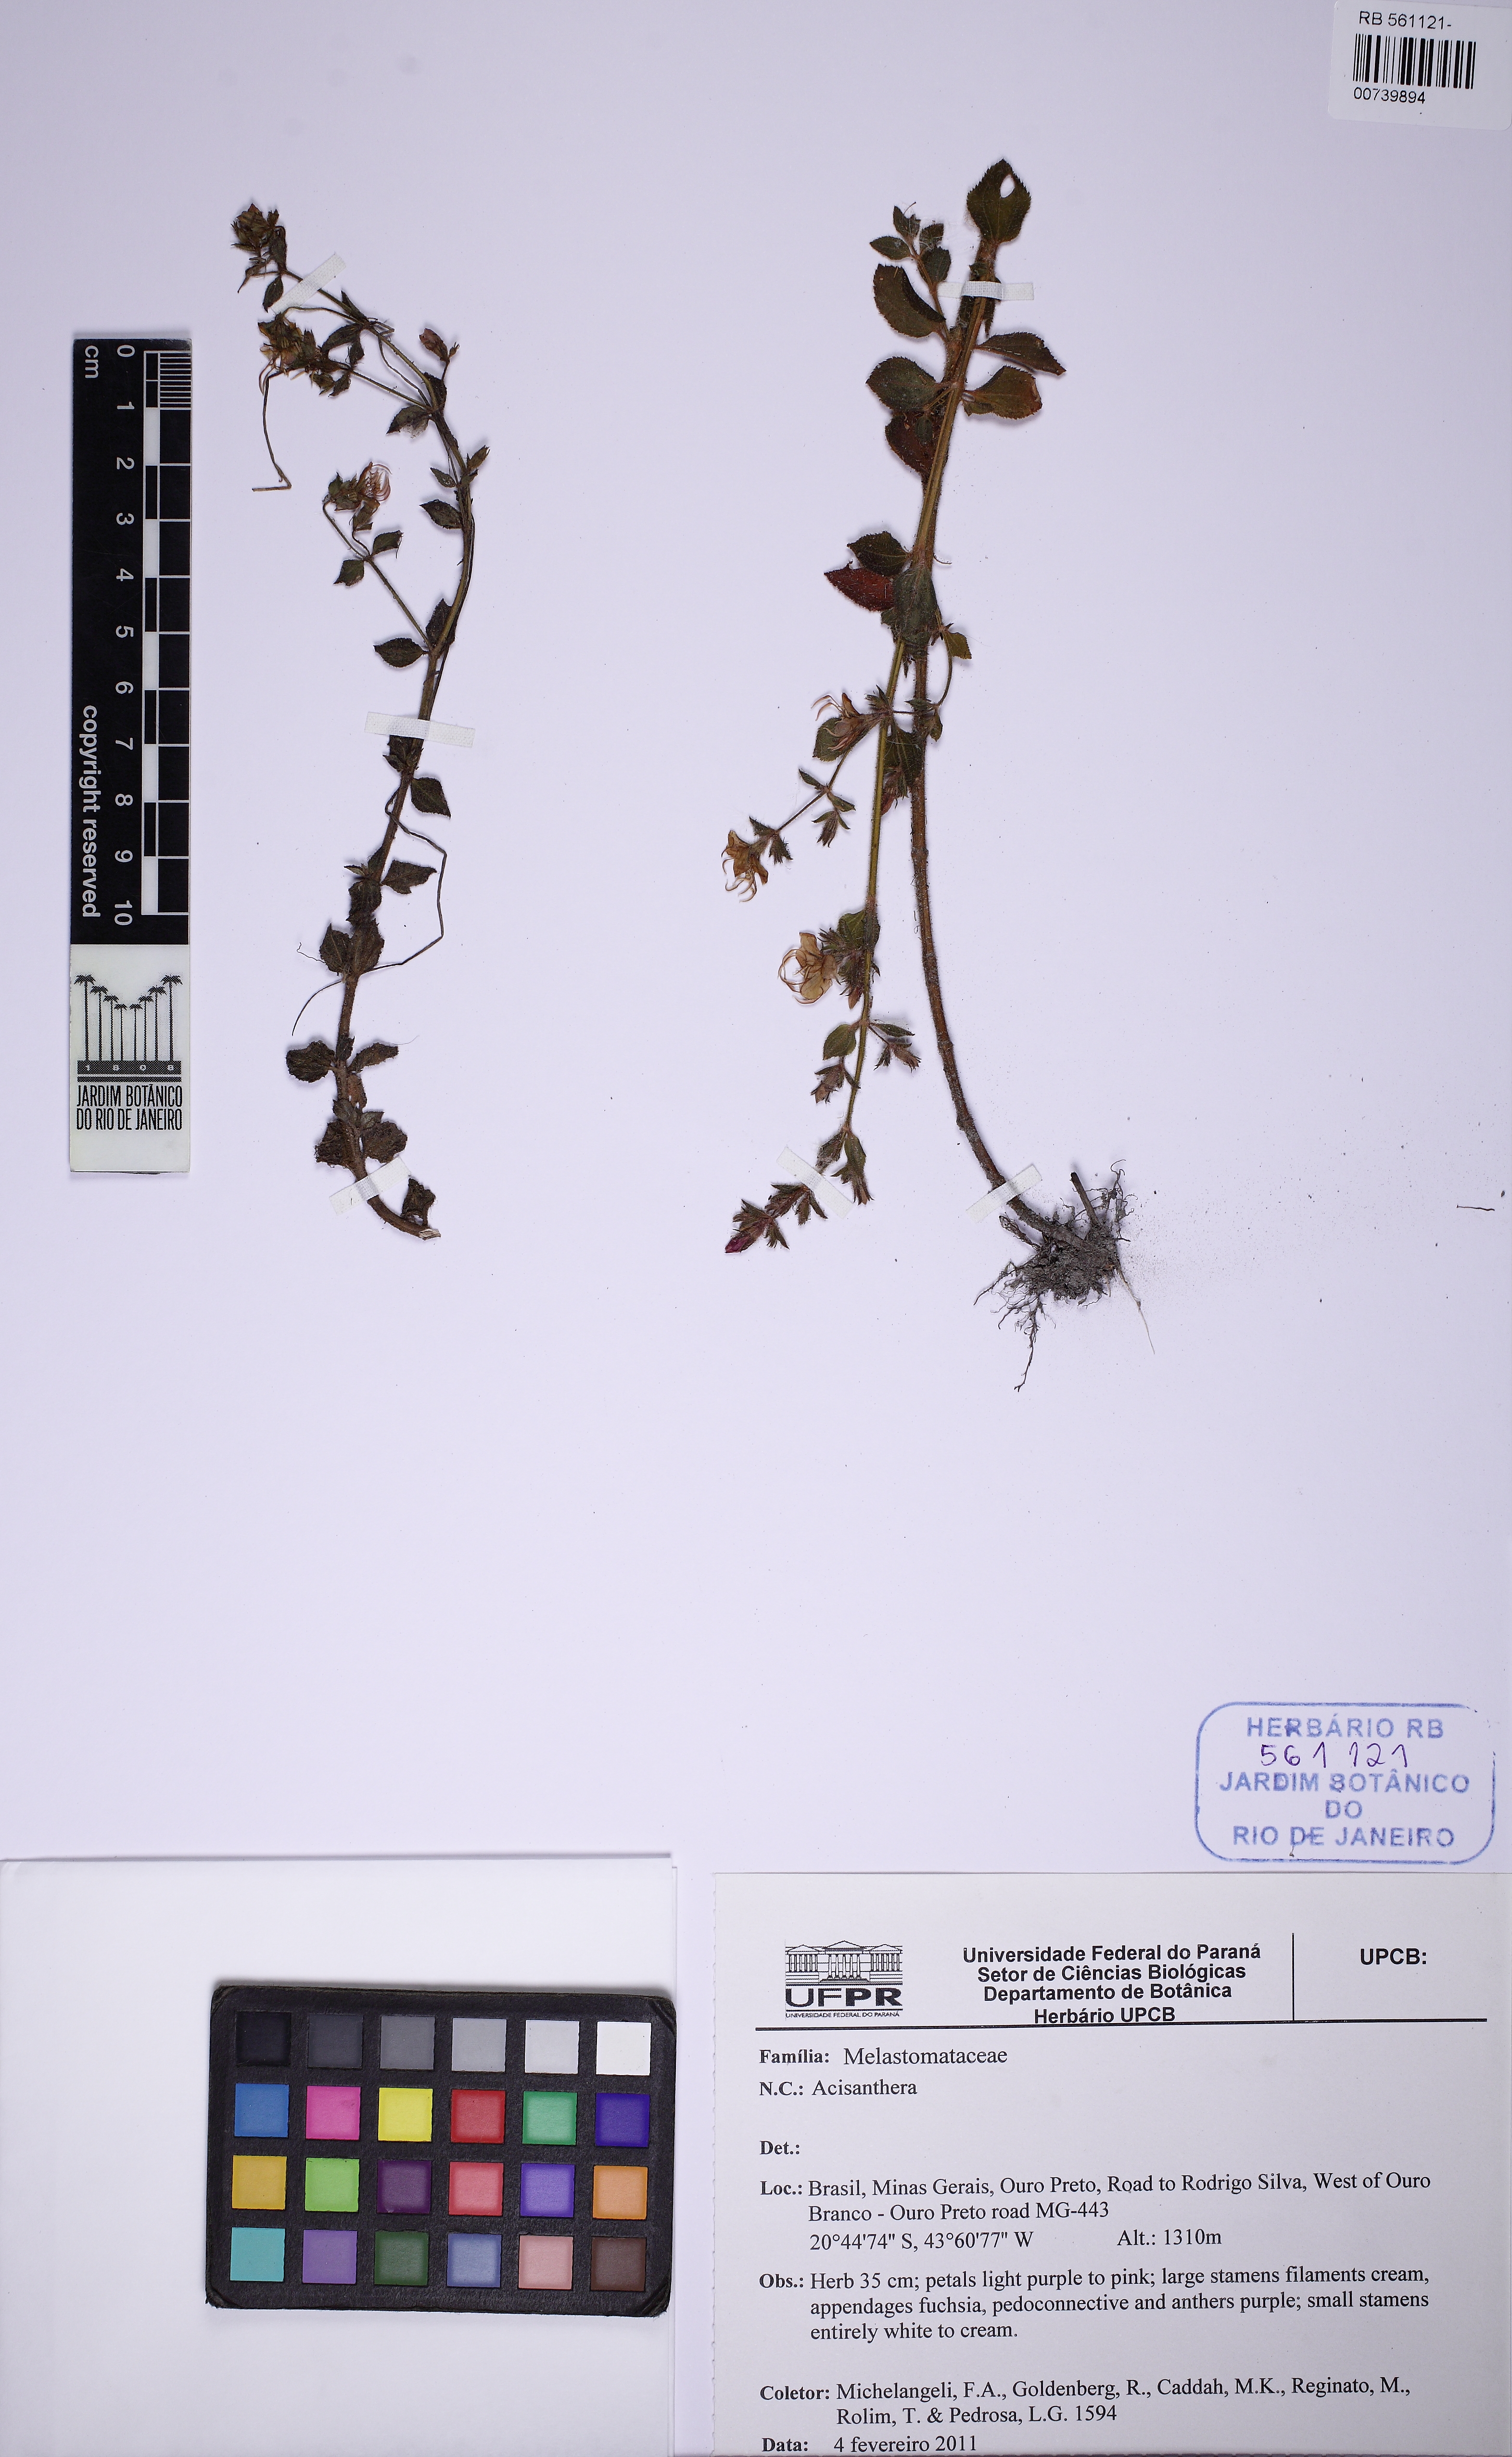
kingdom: Plantae
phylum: Tracheophyta
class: Magnoliopsida
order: Myrtales
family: Melastomataceae
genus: Acisanthera
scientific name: Acisanthera
